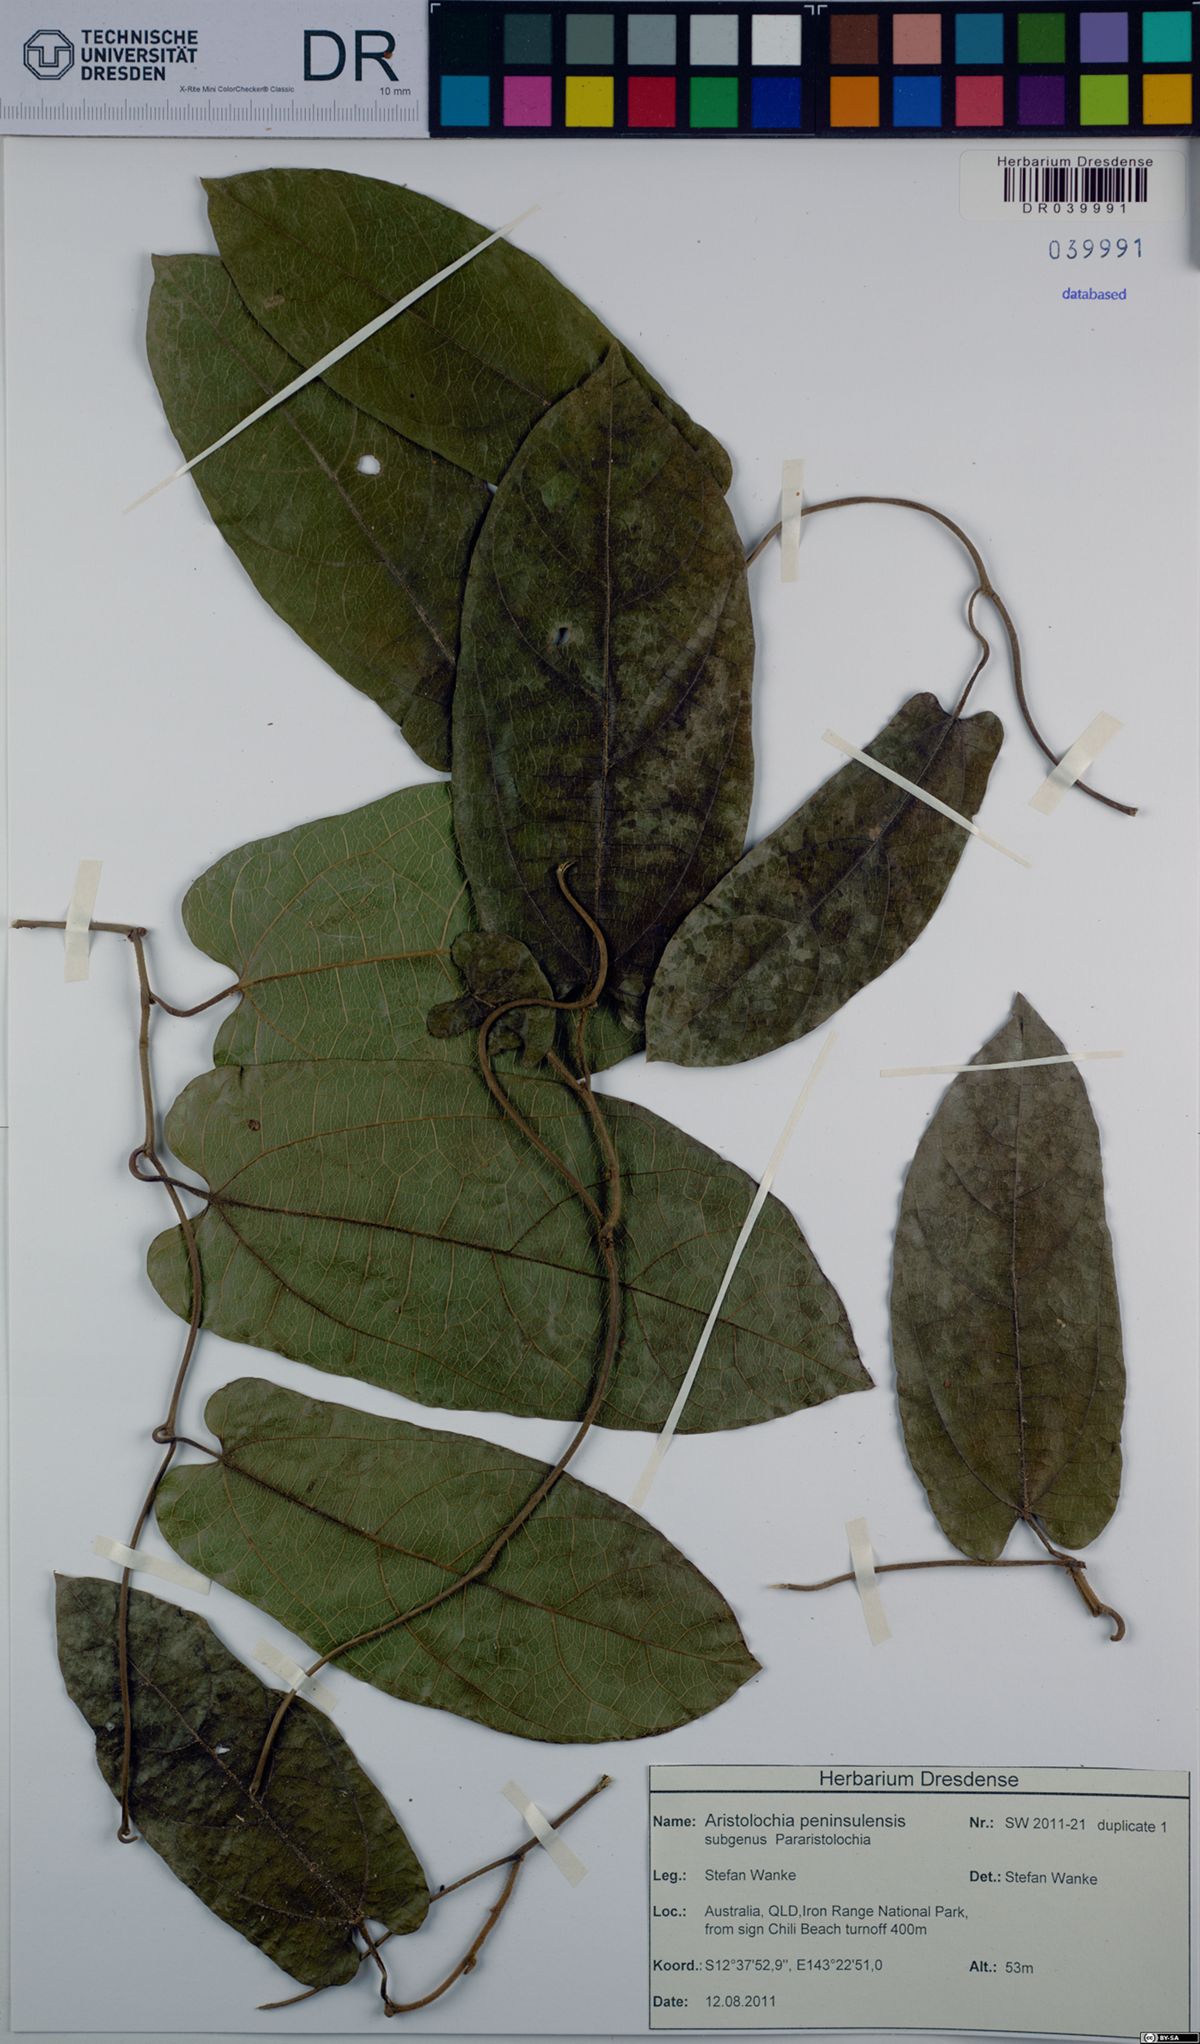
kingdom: Plantae
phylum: Tracheophyta
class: Magnoliopsida
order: Piperales
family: Aristolochiaceae
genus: Aristolochia
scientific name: Aristolochia peninsulensis
